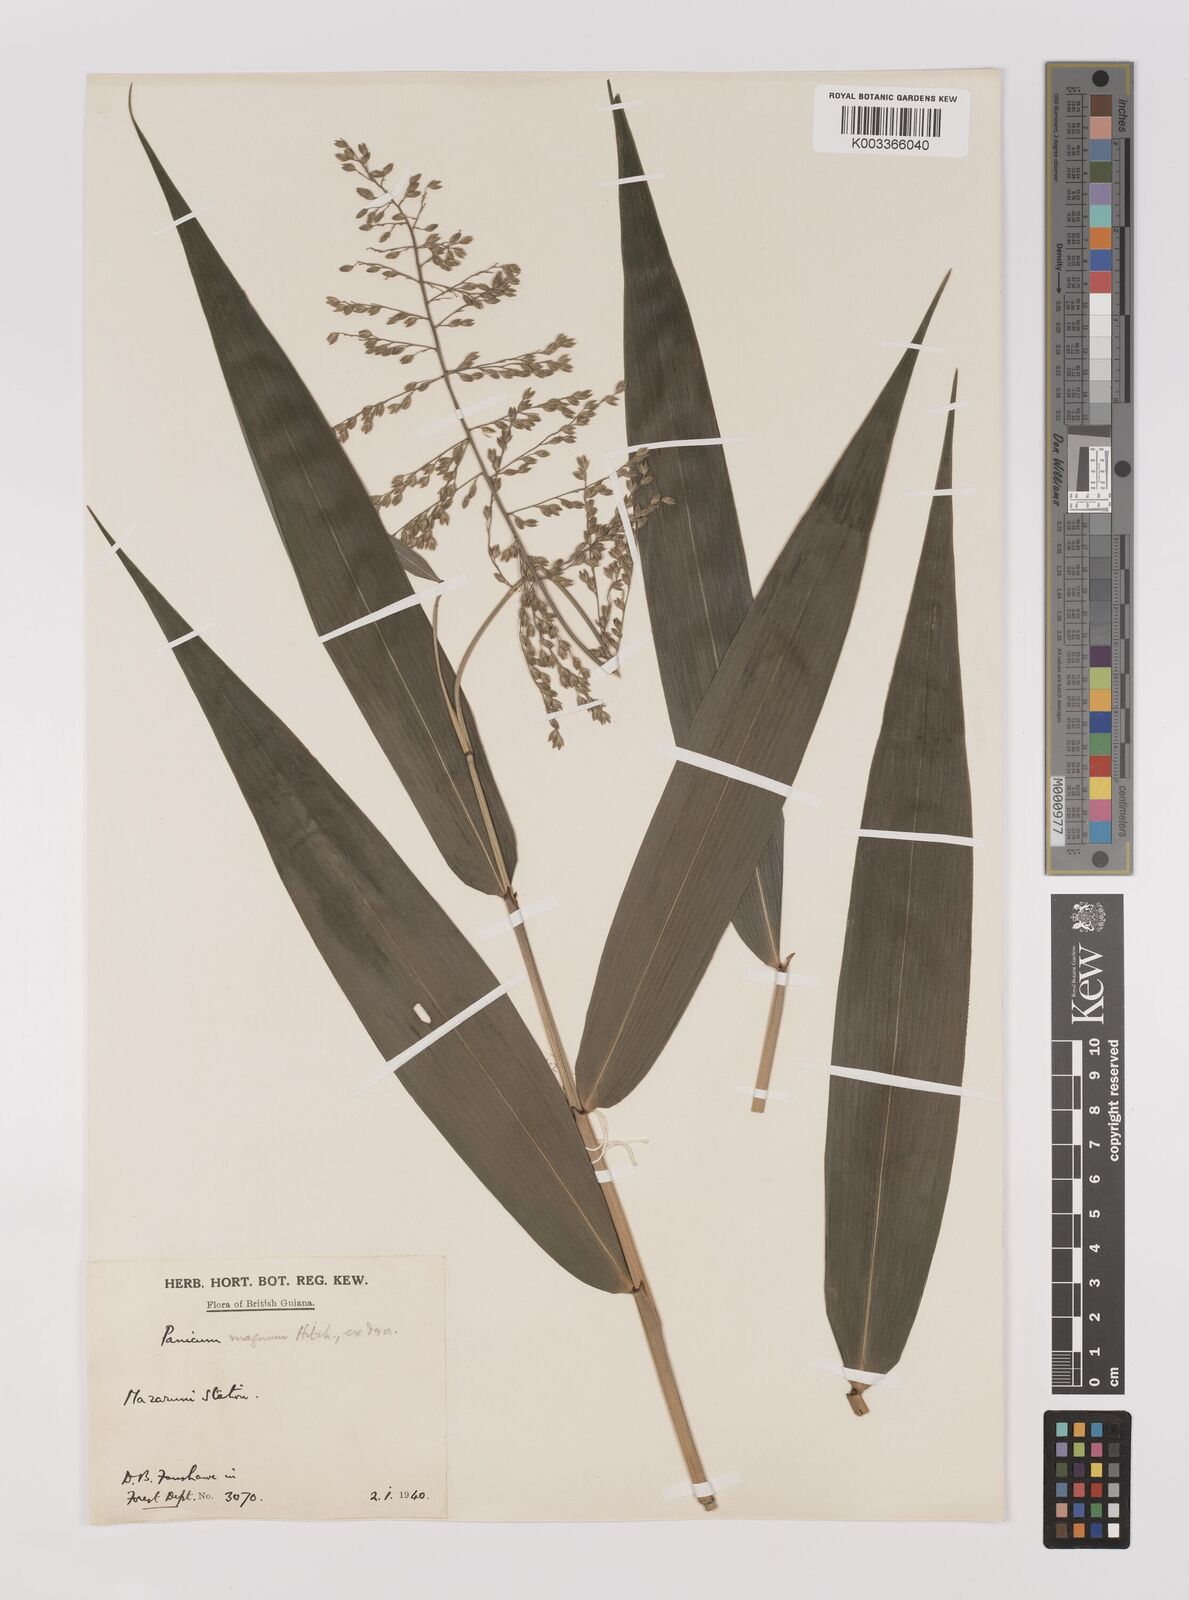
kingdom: Plantae
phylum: Tracheophyta
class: Liliopsida
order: Poales
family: Poaceae
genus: Ichnanthus
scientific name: Ichnanthus breviscrobs
